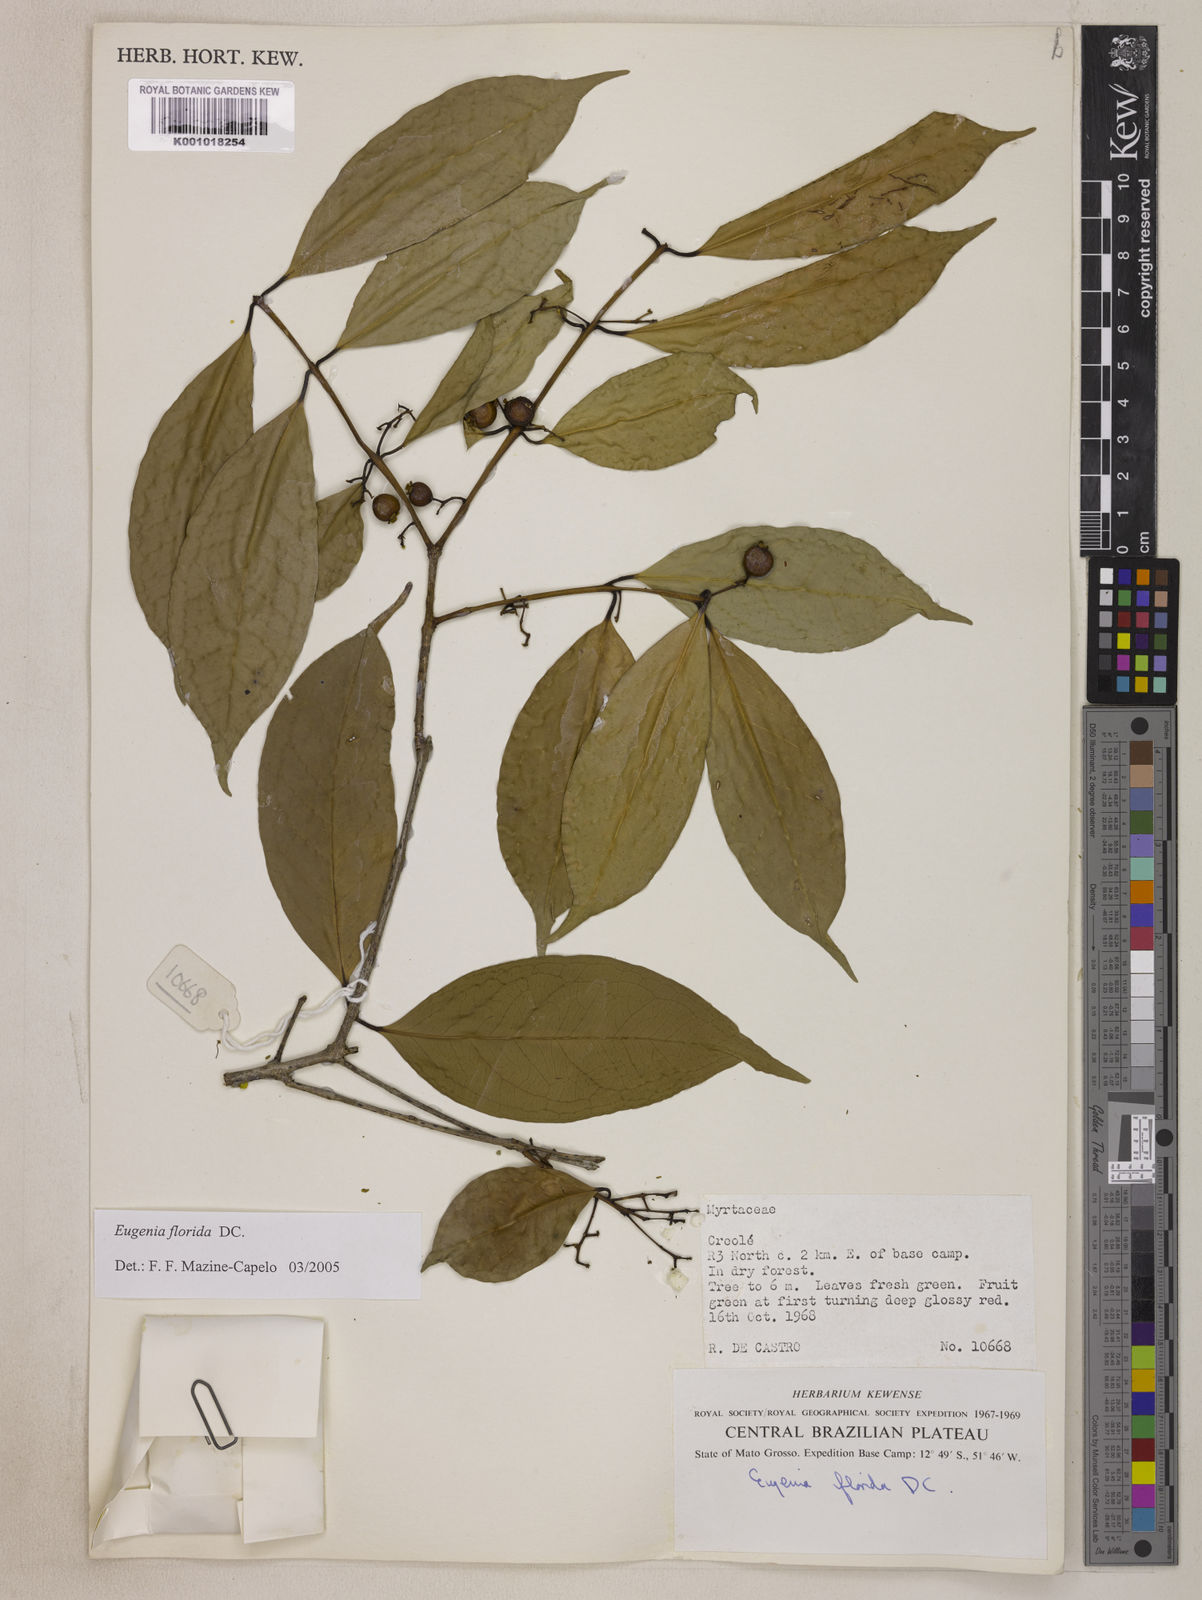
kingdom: Plantae
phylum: Tracheophyta
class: Magnoliopsida
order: Myrtales
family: Myrtaceae
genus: Eugenia
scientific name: Eugenia florida
